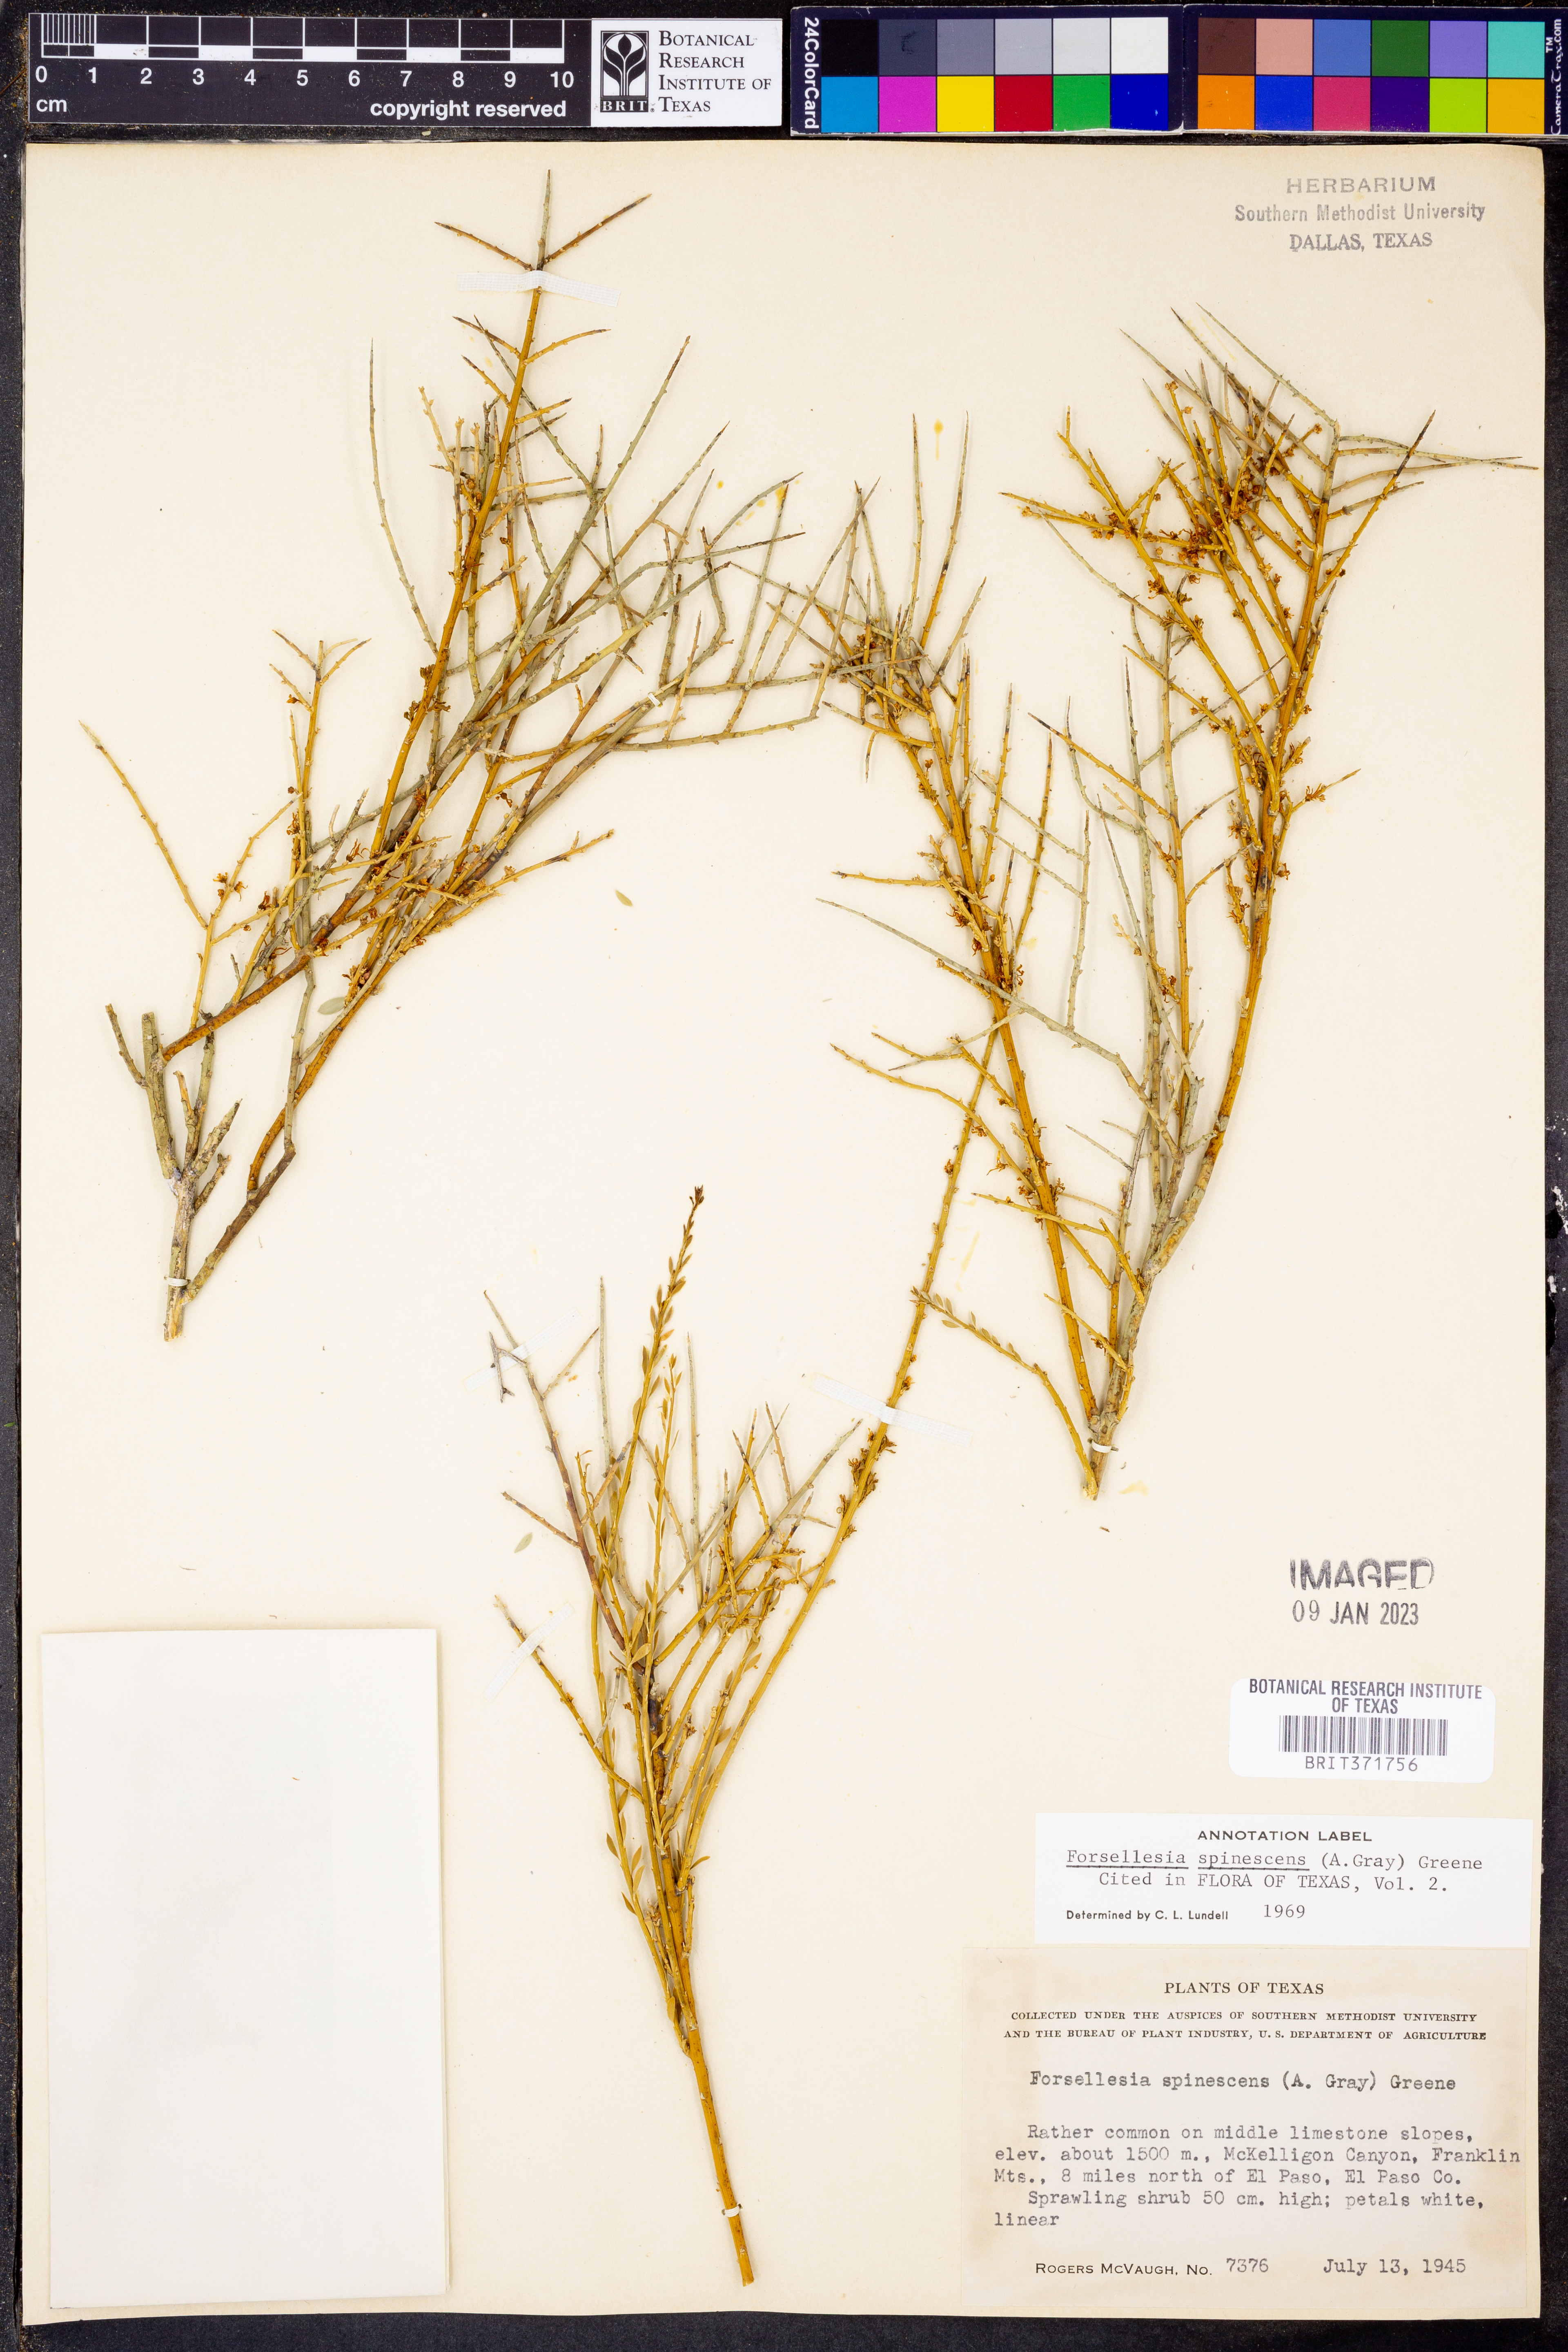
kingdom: Plantae
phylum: Tracheophyta
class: Magnoliopsida
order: Crossosomatales
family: Crossosomataceae
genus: Glossopetalon
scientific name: Glossopetalon spinescens
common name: Spring greasebush
